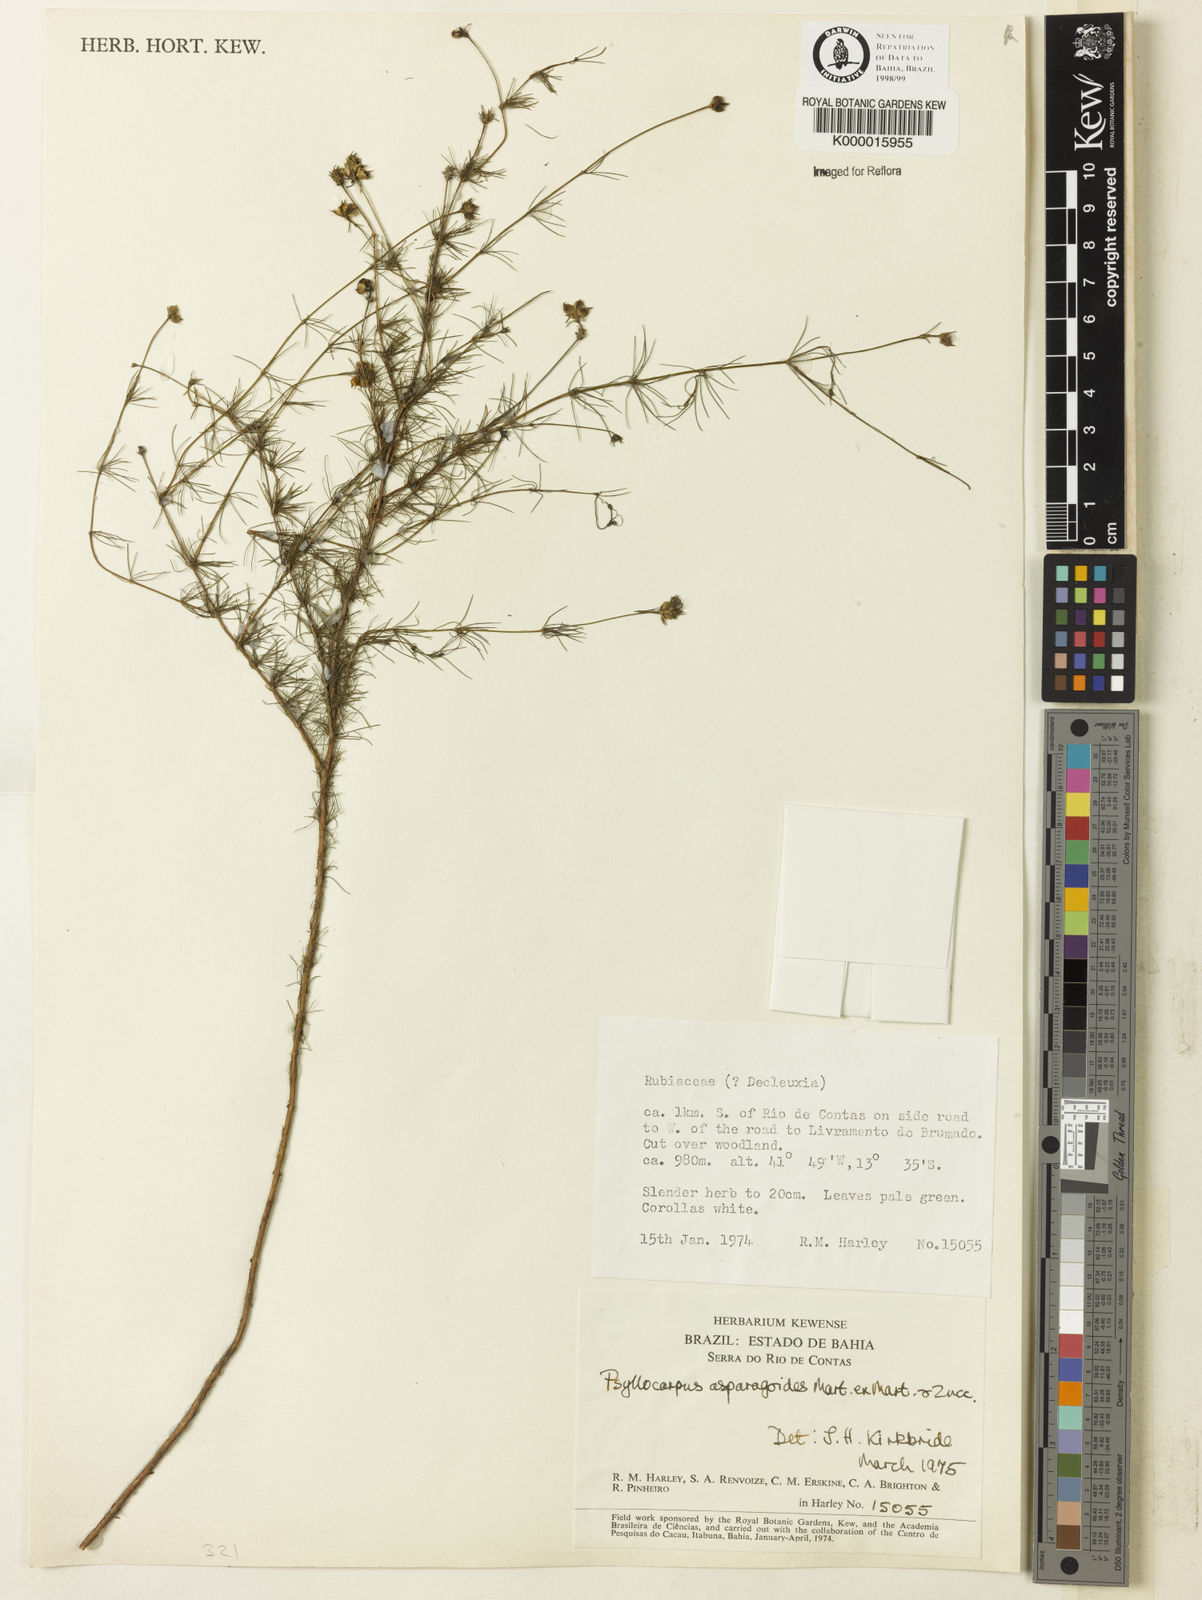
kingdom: Plantae
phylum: Tracheophyta
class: Magnoliopsida
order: Gentianales
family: Rubiaceae
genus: Psyllocarpus
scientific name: Psyllocarpus asparagoides
